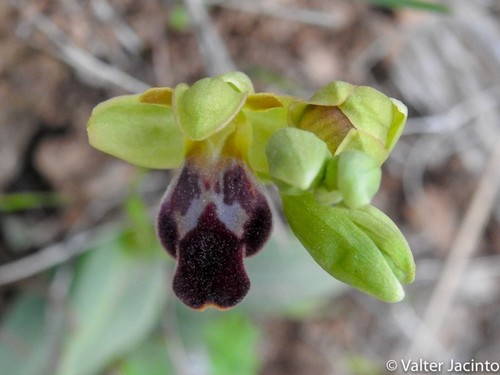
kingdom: Plantae
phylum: Tracheophyta
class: Liliopsida
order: Asparagales
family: Orchidaceae
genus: Ophrys
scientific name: Ophrys fusca
